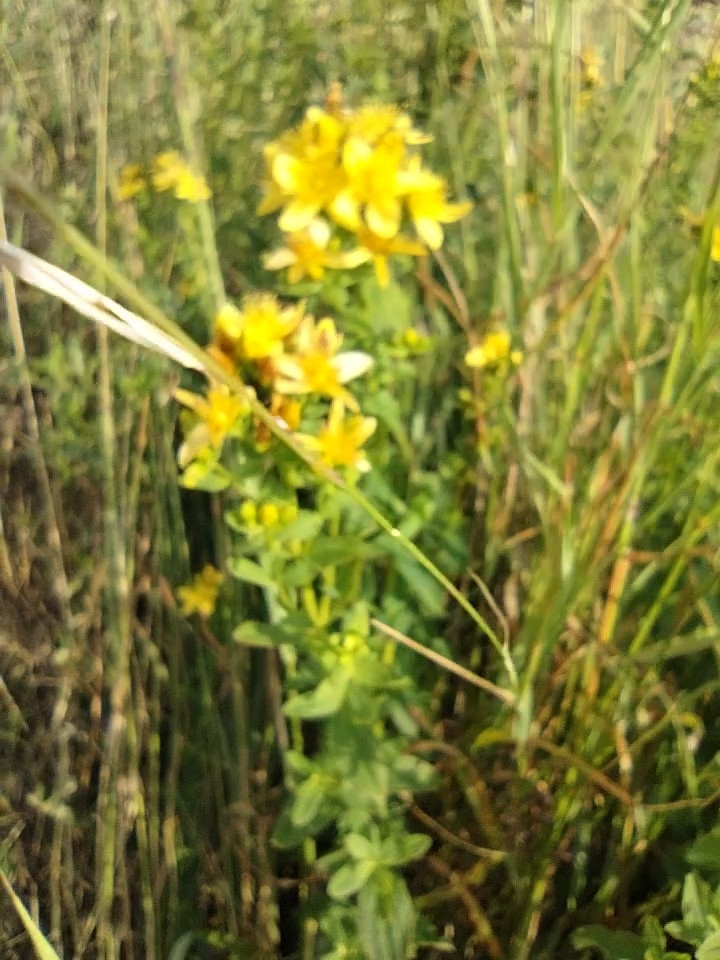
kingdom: Plantae
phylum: Tracheophyta
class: Magnoliopsida
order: Malpighiales
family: Hypericaceae
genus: Hypericum
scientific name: Hypericum maculatum
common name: Kantet perikon
